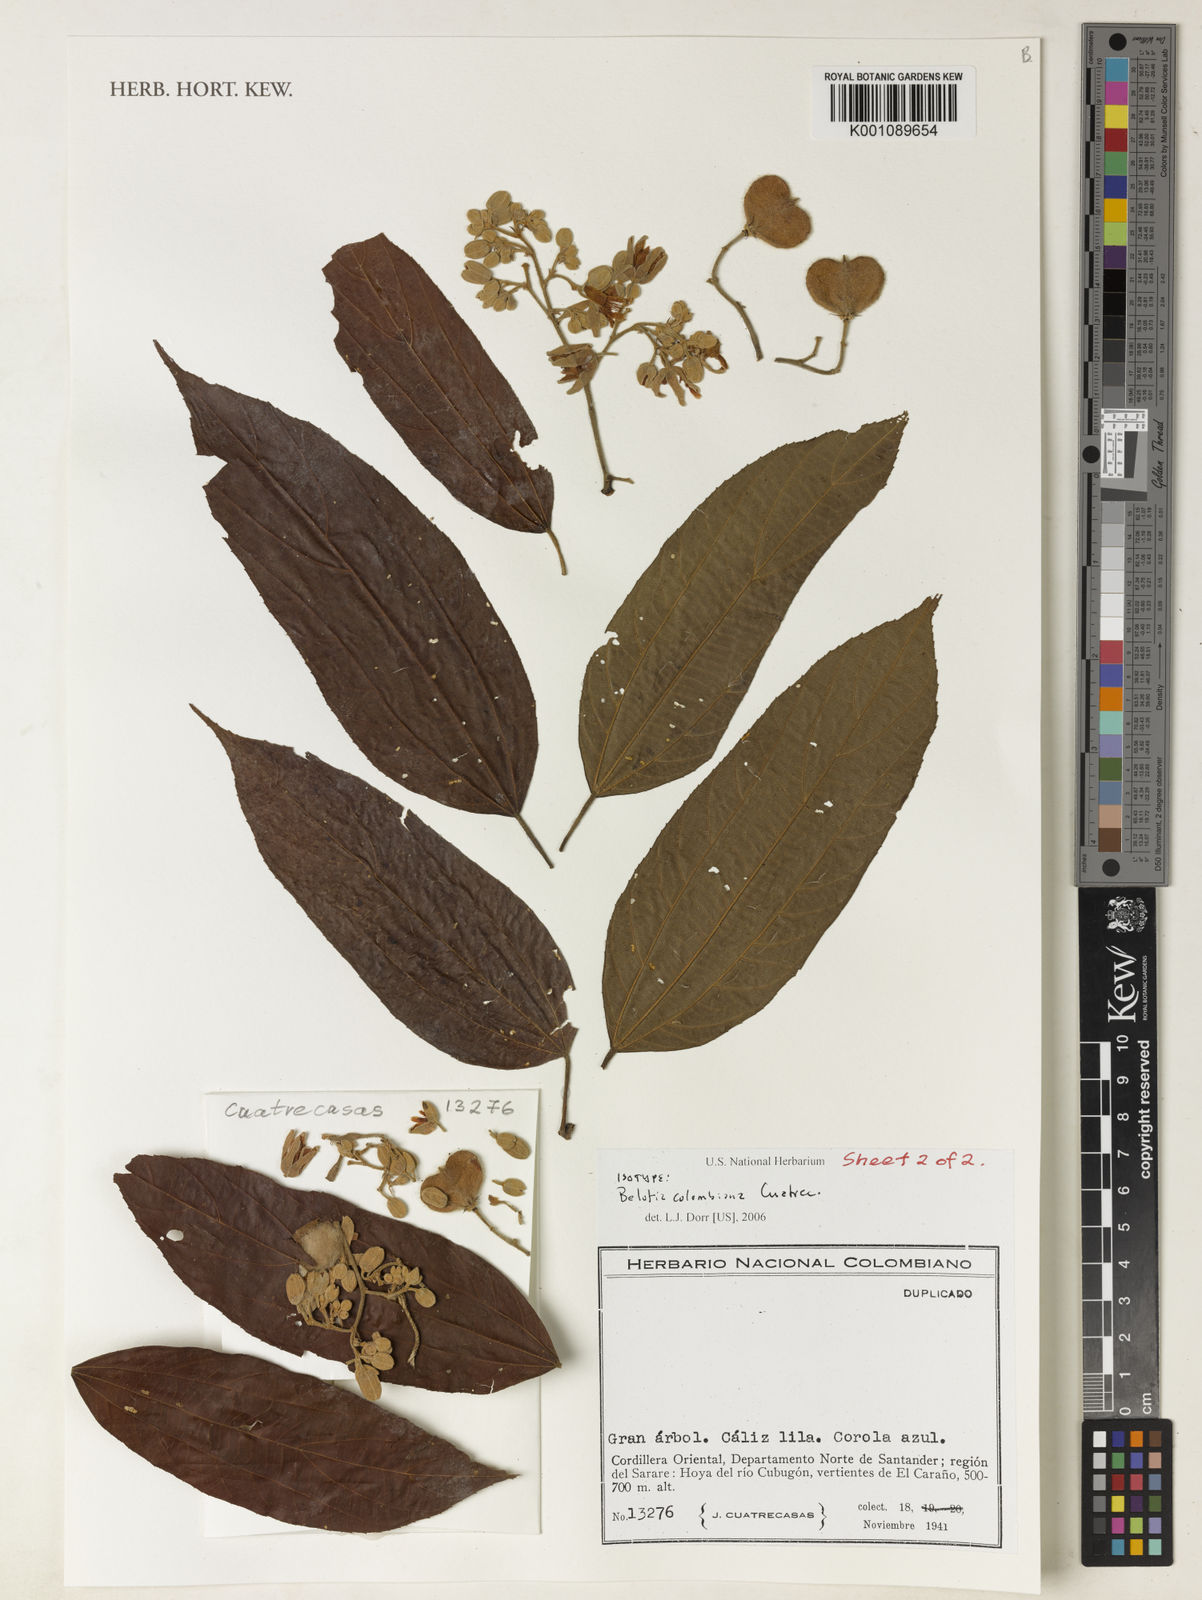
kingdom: Plantae
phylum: Tracheophyta
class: Magnoliopsida
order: Malvales
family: Malvaceae
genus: Trichospermum
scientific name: Trichospermum mexicanum
